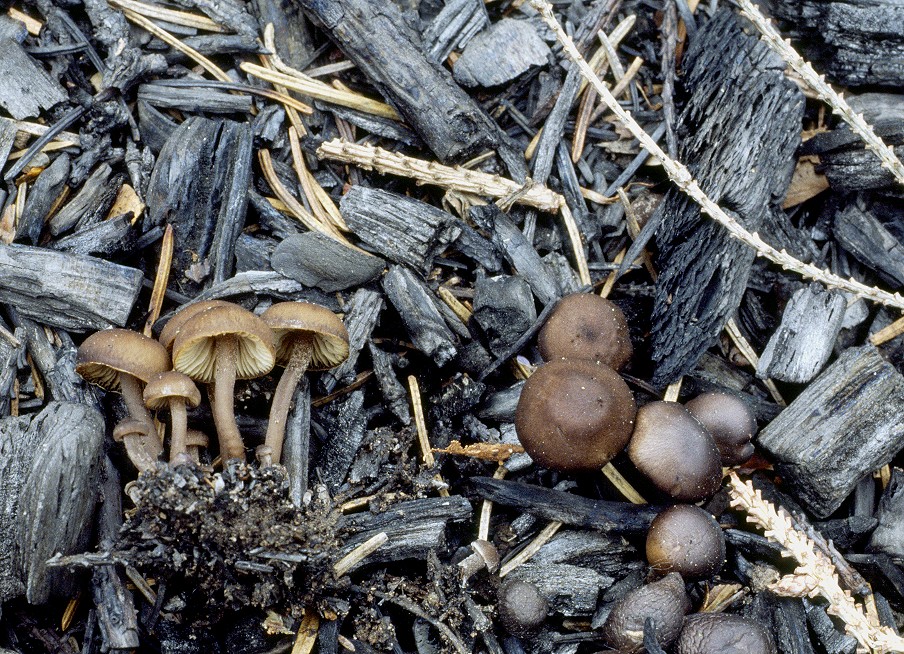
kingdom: Fungi
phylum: Basidiomycota
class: Agaricomycetes
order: Agaricales
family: Lyophyllaceae
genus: Tephrocybe
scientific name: Tephrocybe ambusta
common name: kul-gråblad
